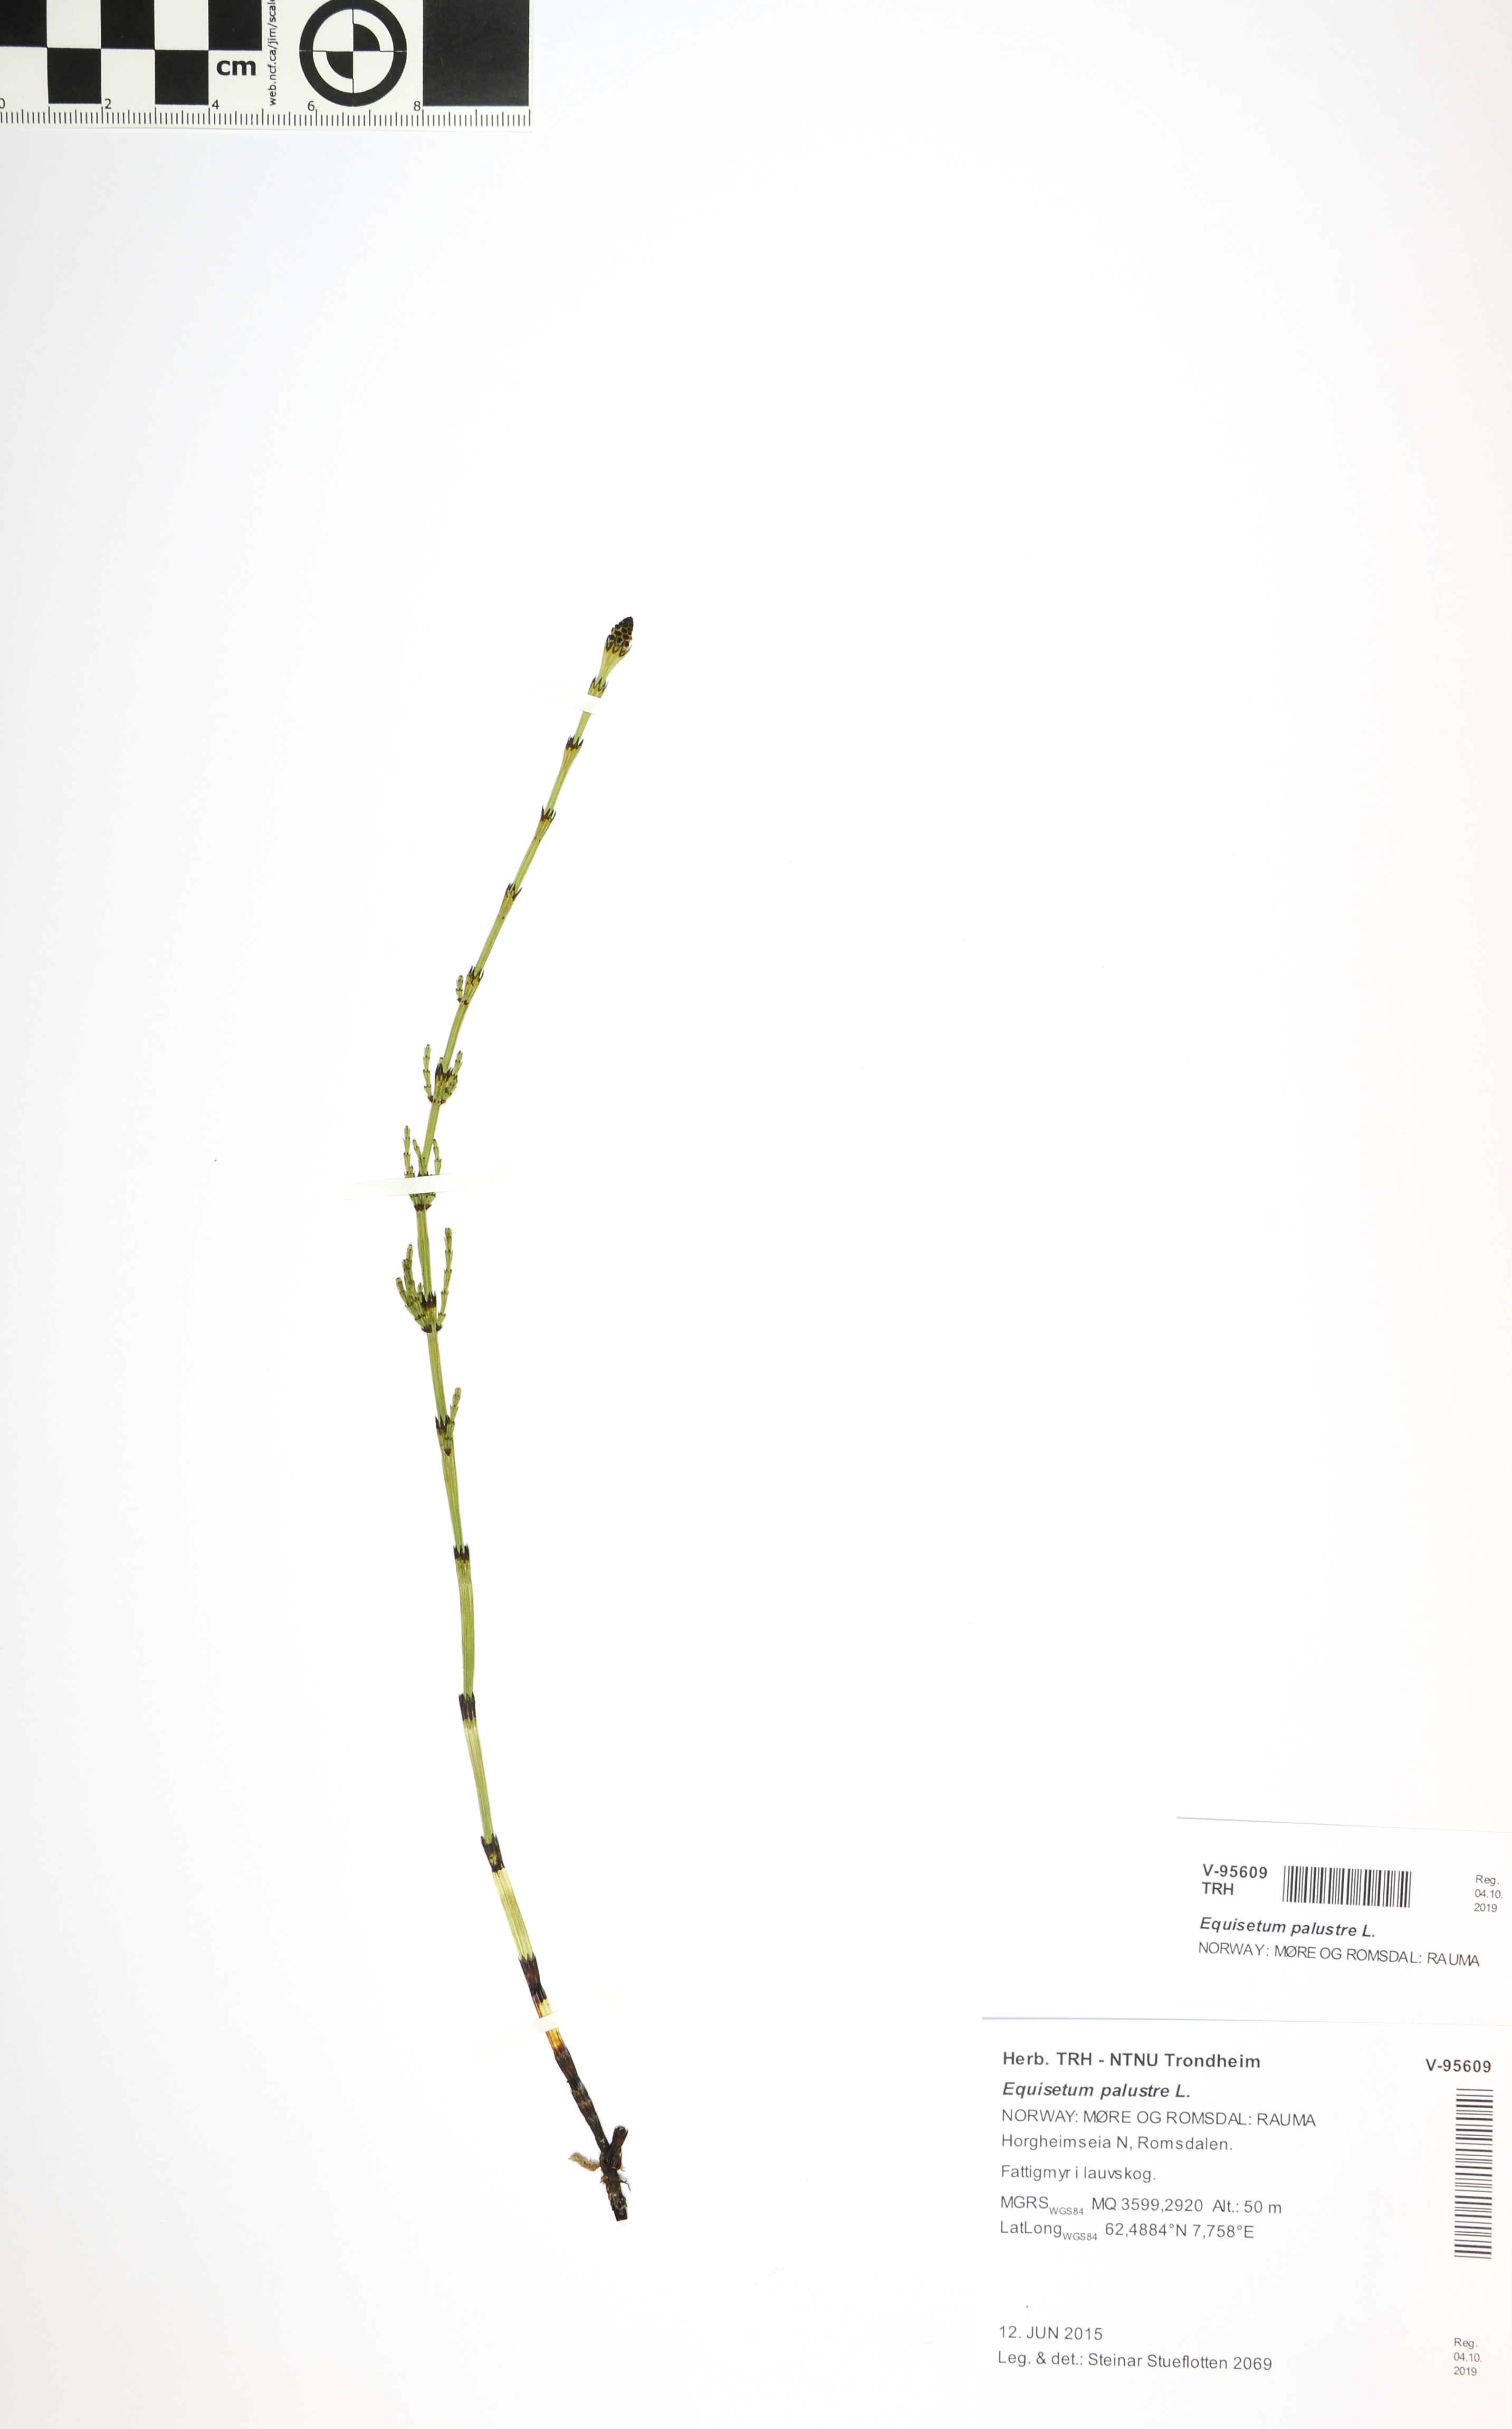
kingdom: Plantae
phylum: Tracheophyta
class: Polypodiopsida
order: Equisetales
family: Equisetaceae
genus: Equisetum
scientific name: Equisetum palustre
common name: Marsh horsetail
